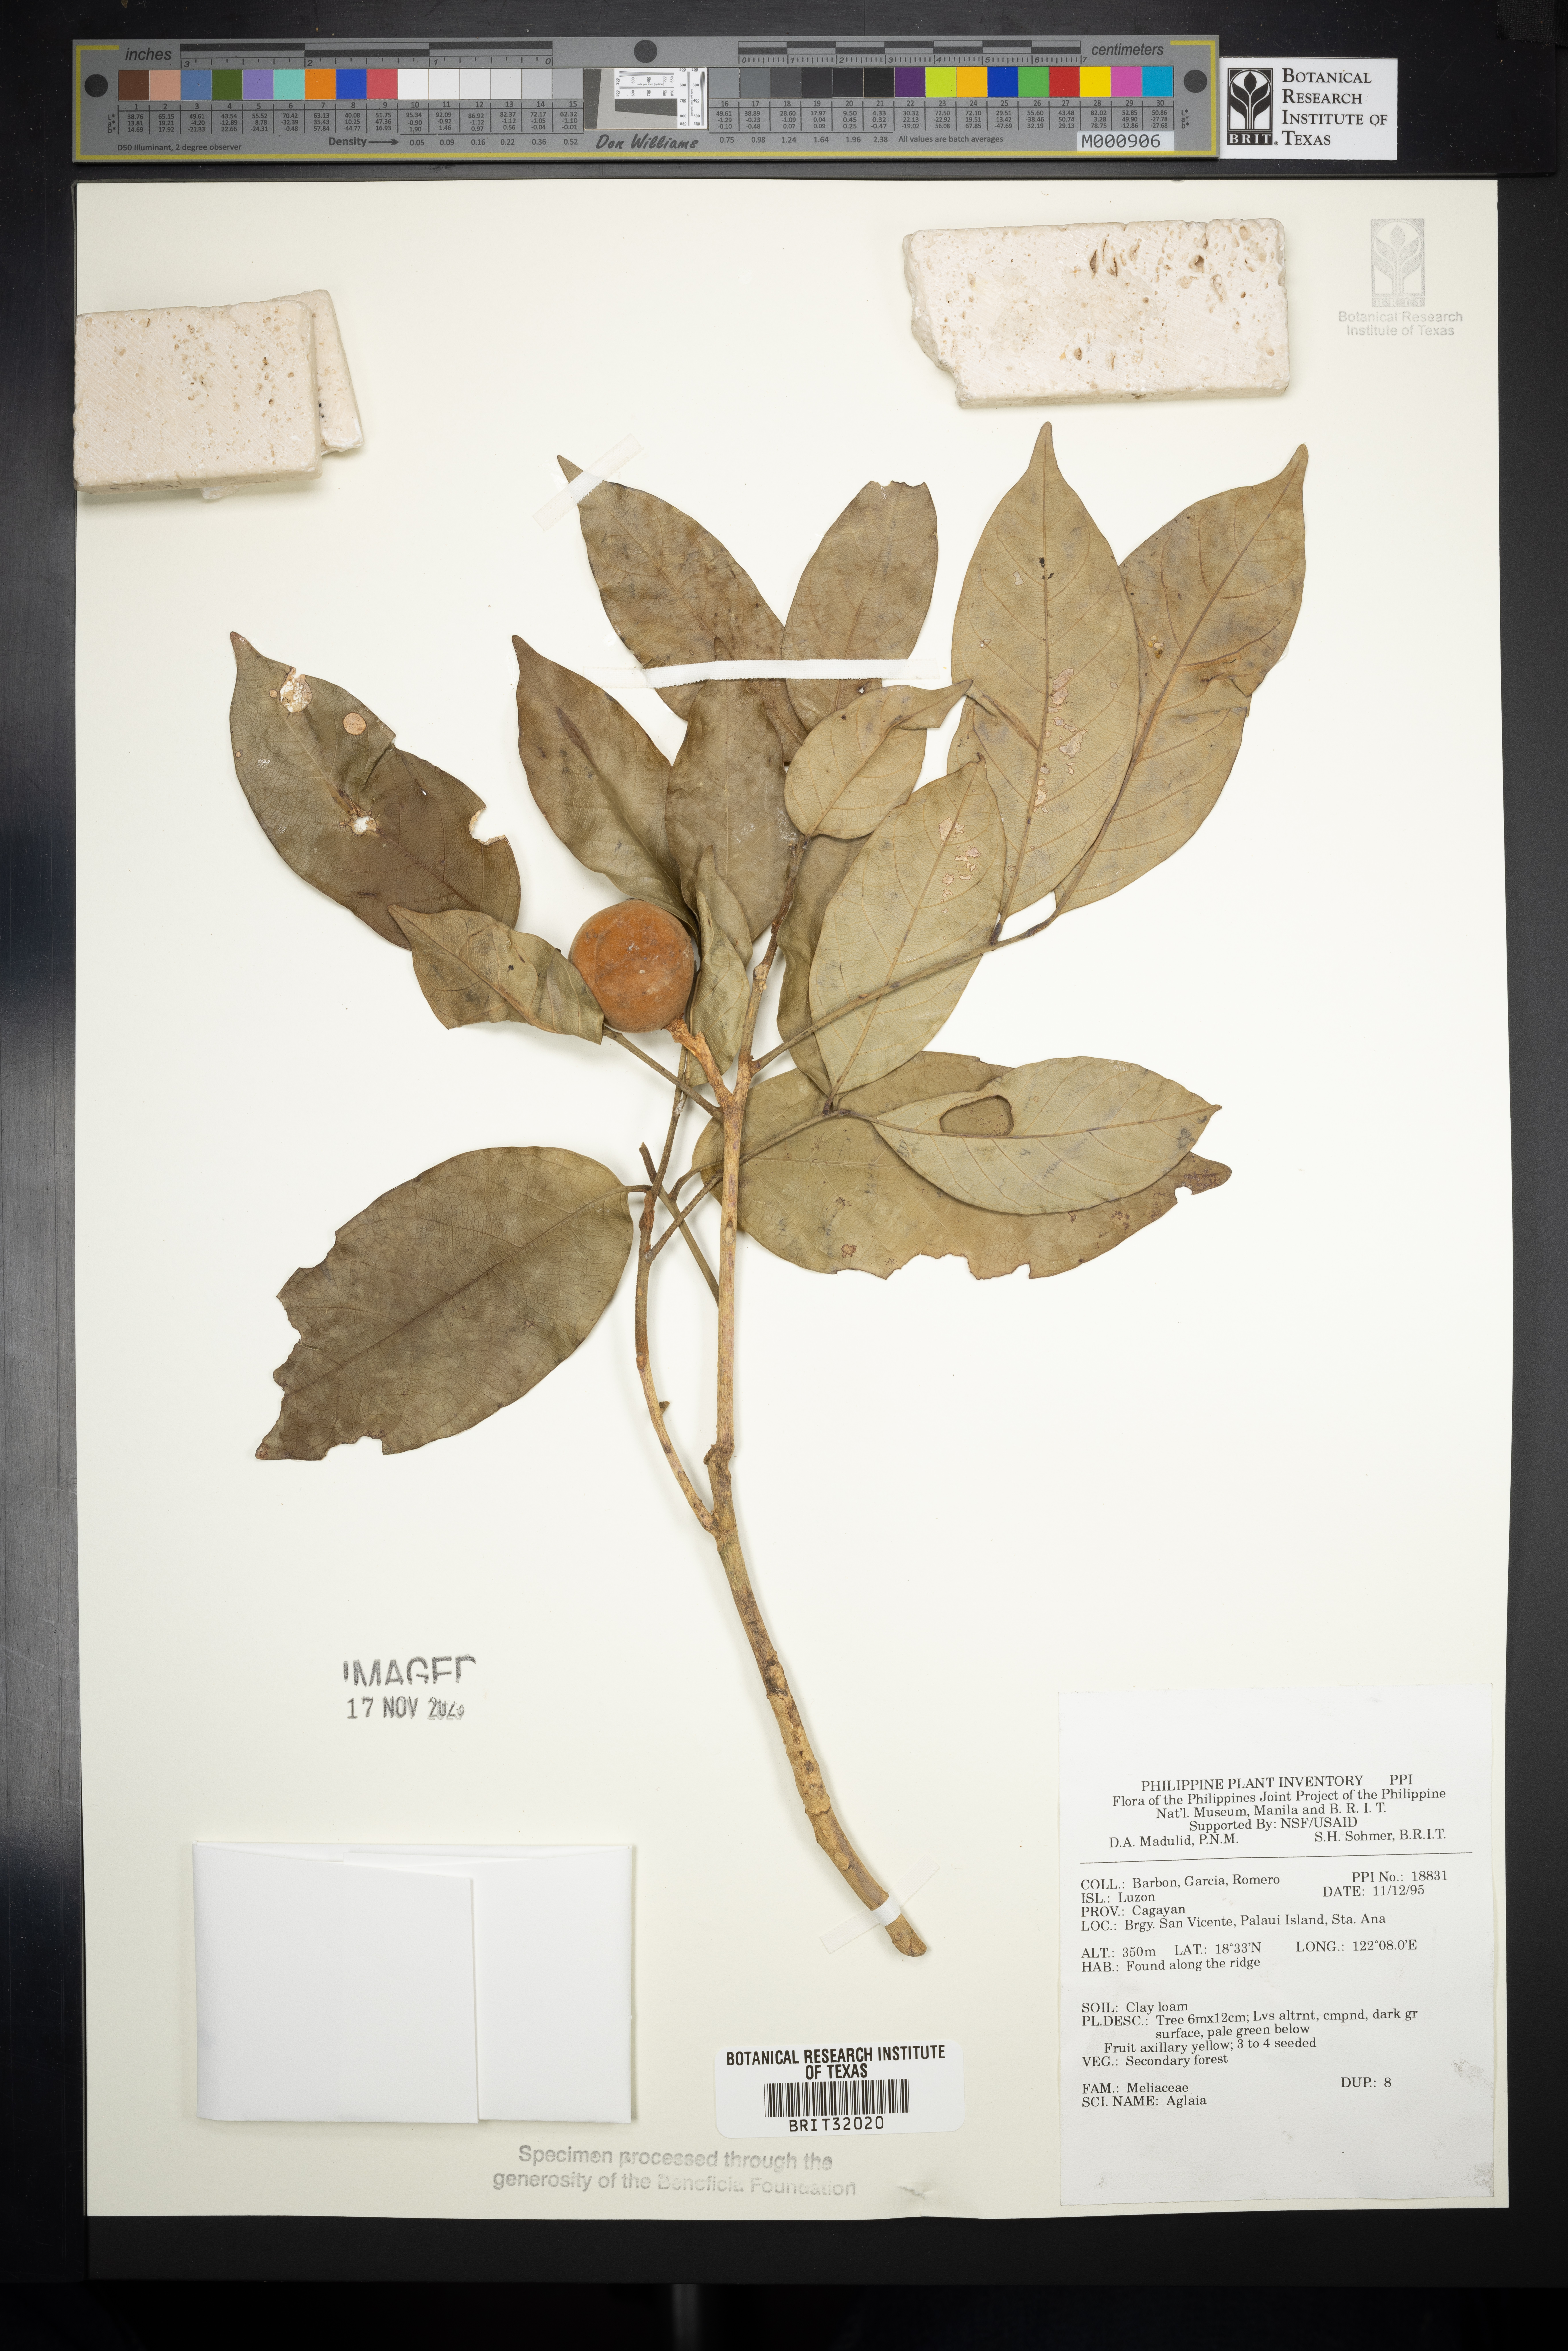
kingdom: Plantae
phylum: Tracheophyta
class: Magnoliopsida
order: Sapindales
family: Meliaceae
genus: Aglaia
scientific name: Aglaia
